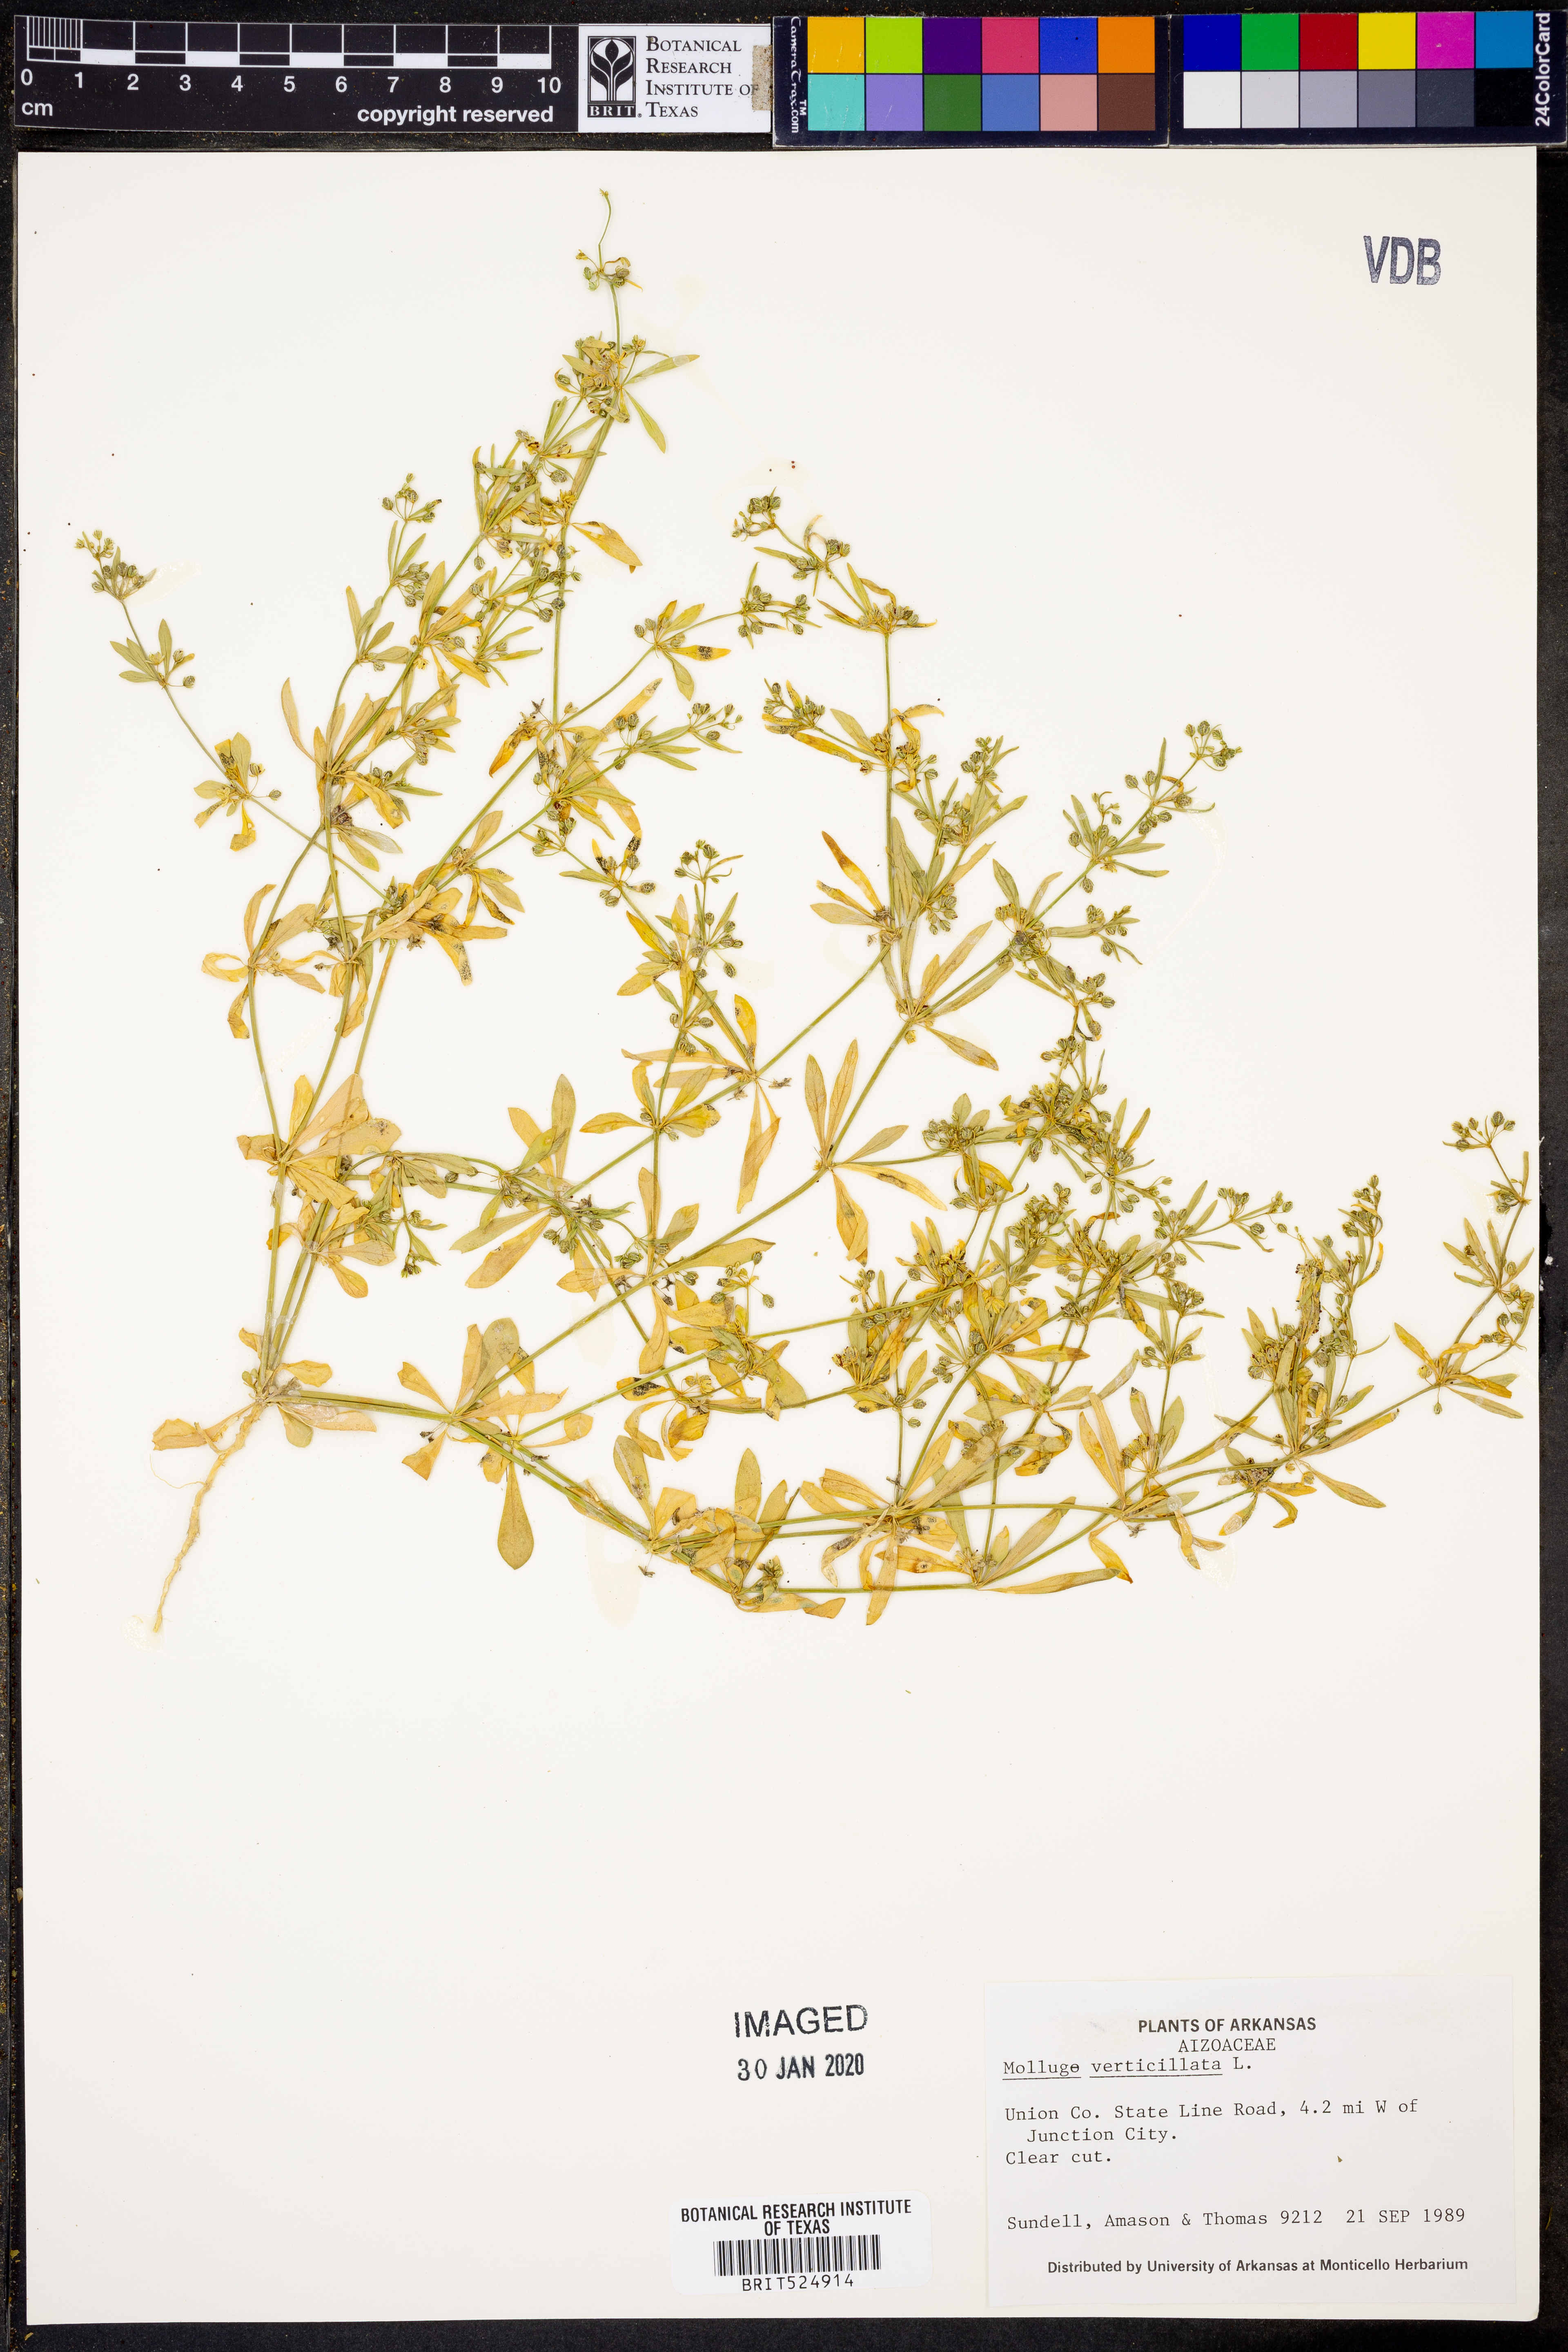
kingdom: Plantae
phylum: Tracheophyta
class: Magnoliopsida
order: Caryophyllales
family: Molluginaceae
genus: Mollugo
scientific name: Mollugo verticillata
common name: Green carpetweed
